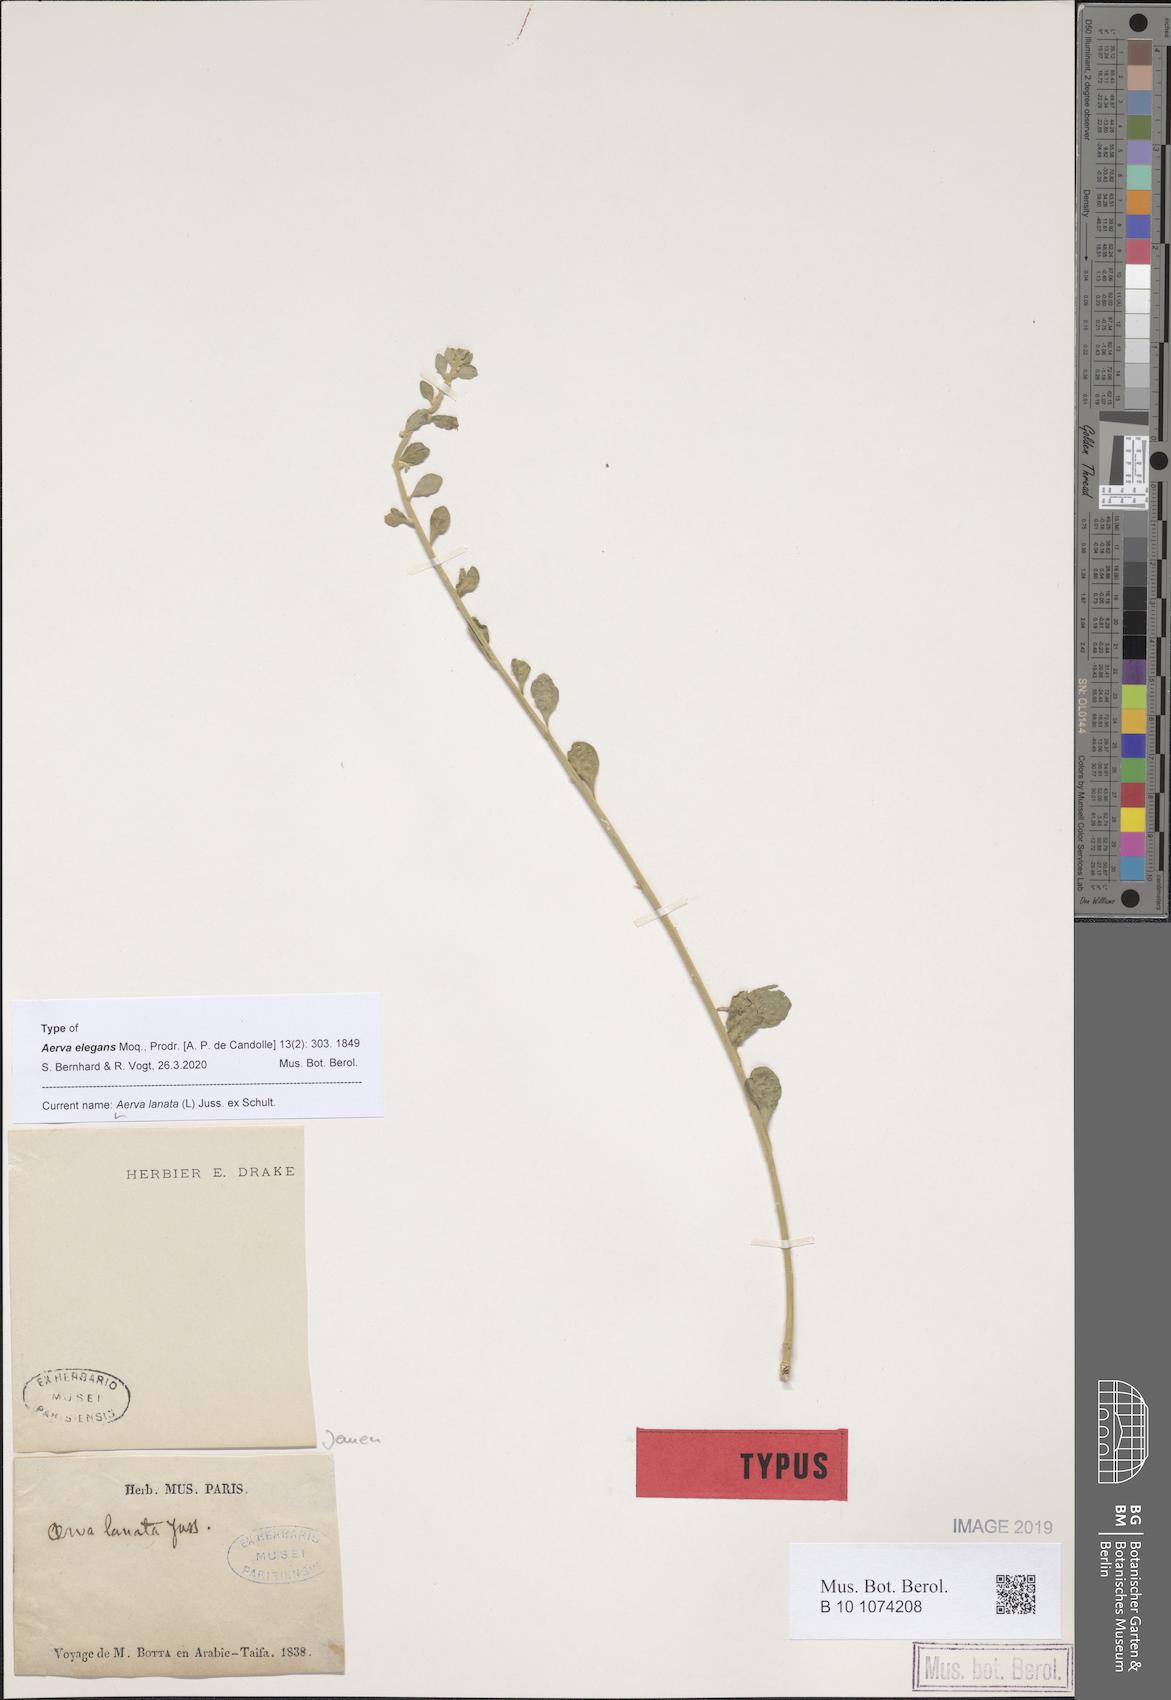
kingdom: Plantae
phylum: Tracheophyta
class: Magnoliopsida
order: Caryophyllales
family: Amaranthaceae
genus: Ouret
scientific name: Ouret lanata
